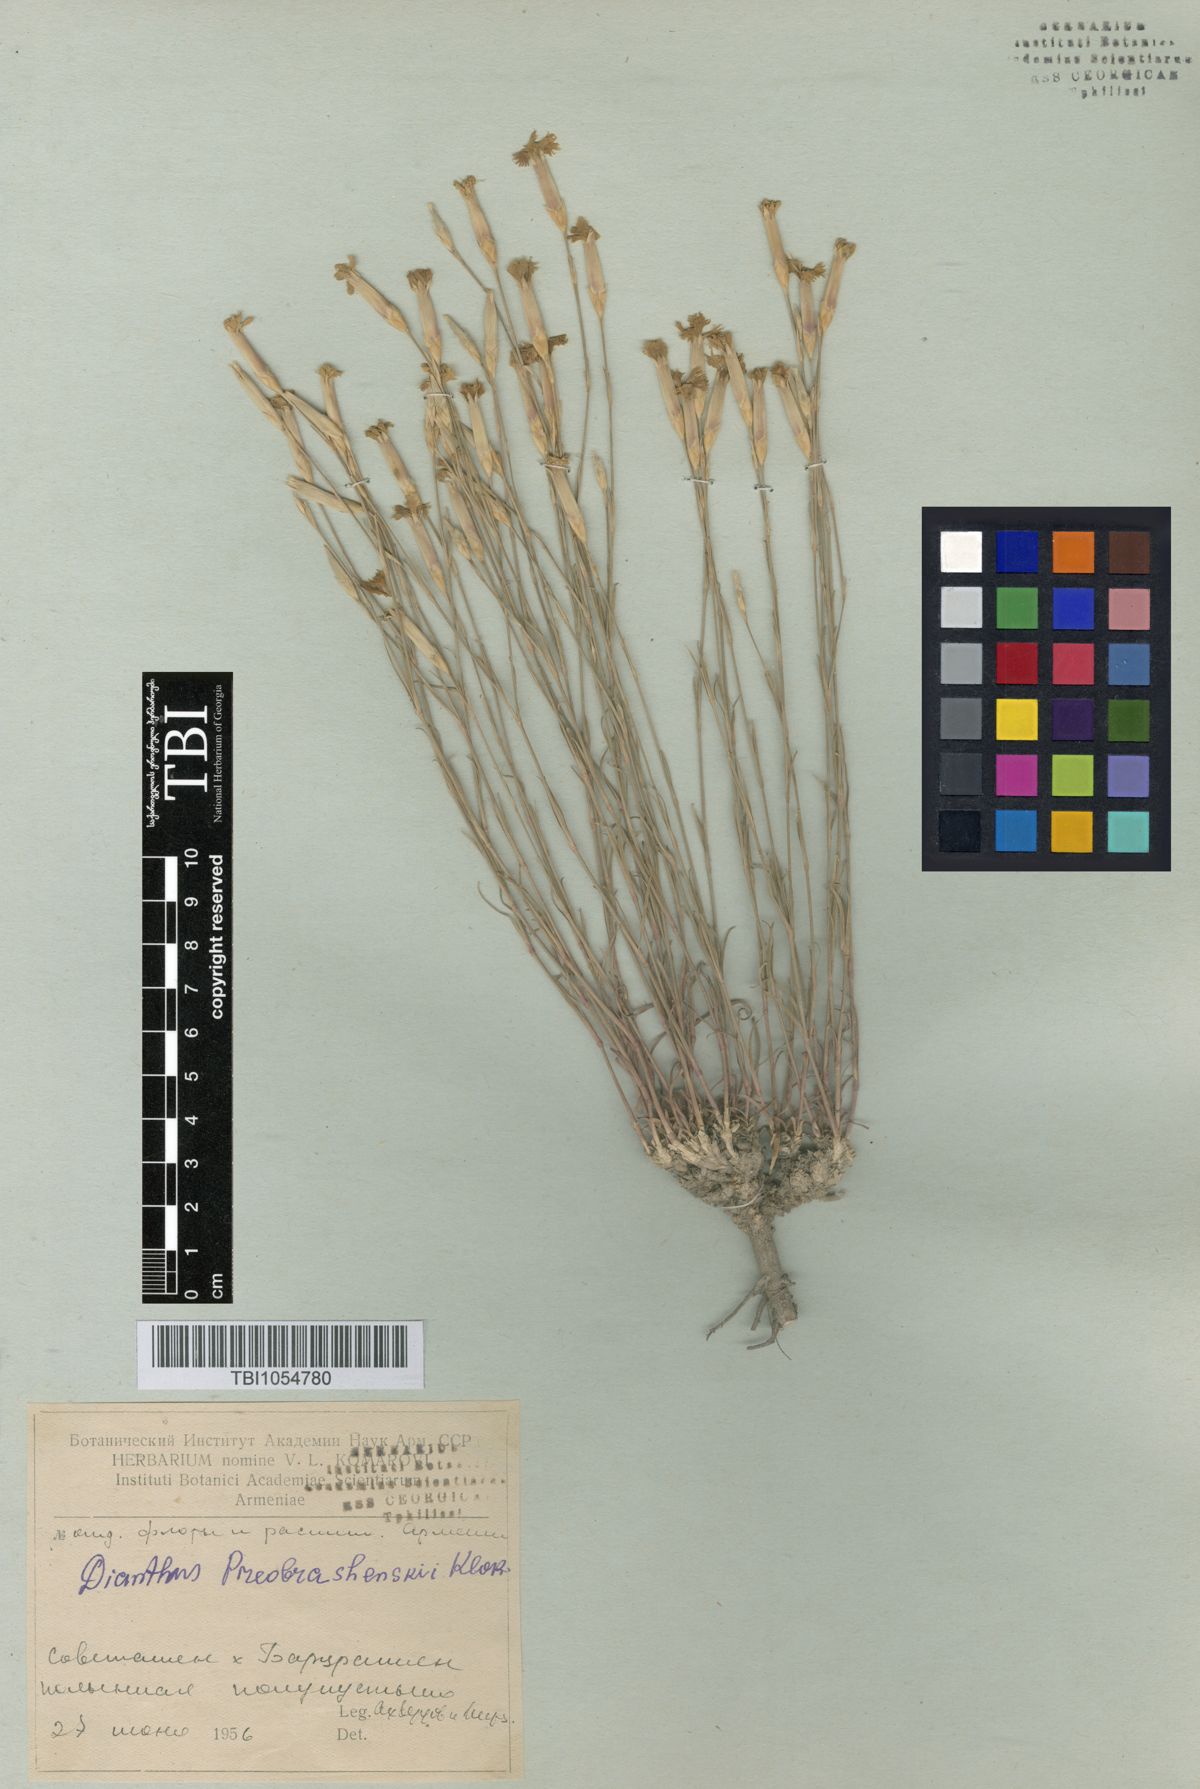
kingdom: Plantae
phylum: Tracheophyta
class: Magnoliopsida
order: Caryophyllales
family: Caryophyllaceae
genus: Dianthus
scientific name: Dianthus bicolor
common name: Bicolour pink
